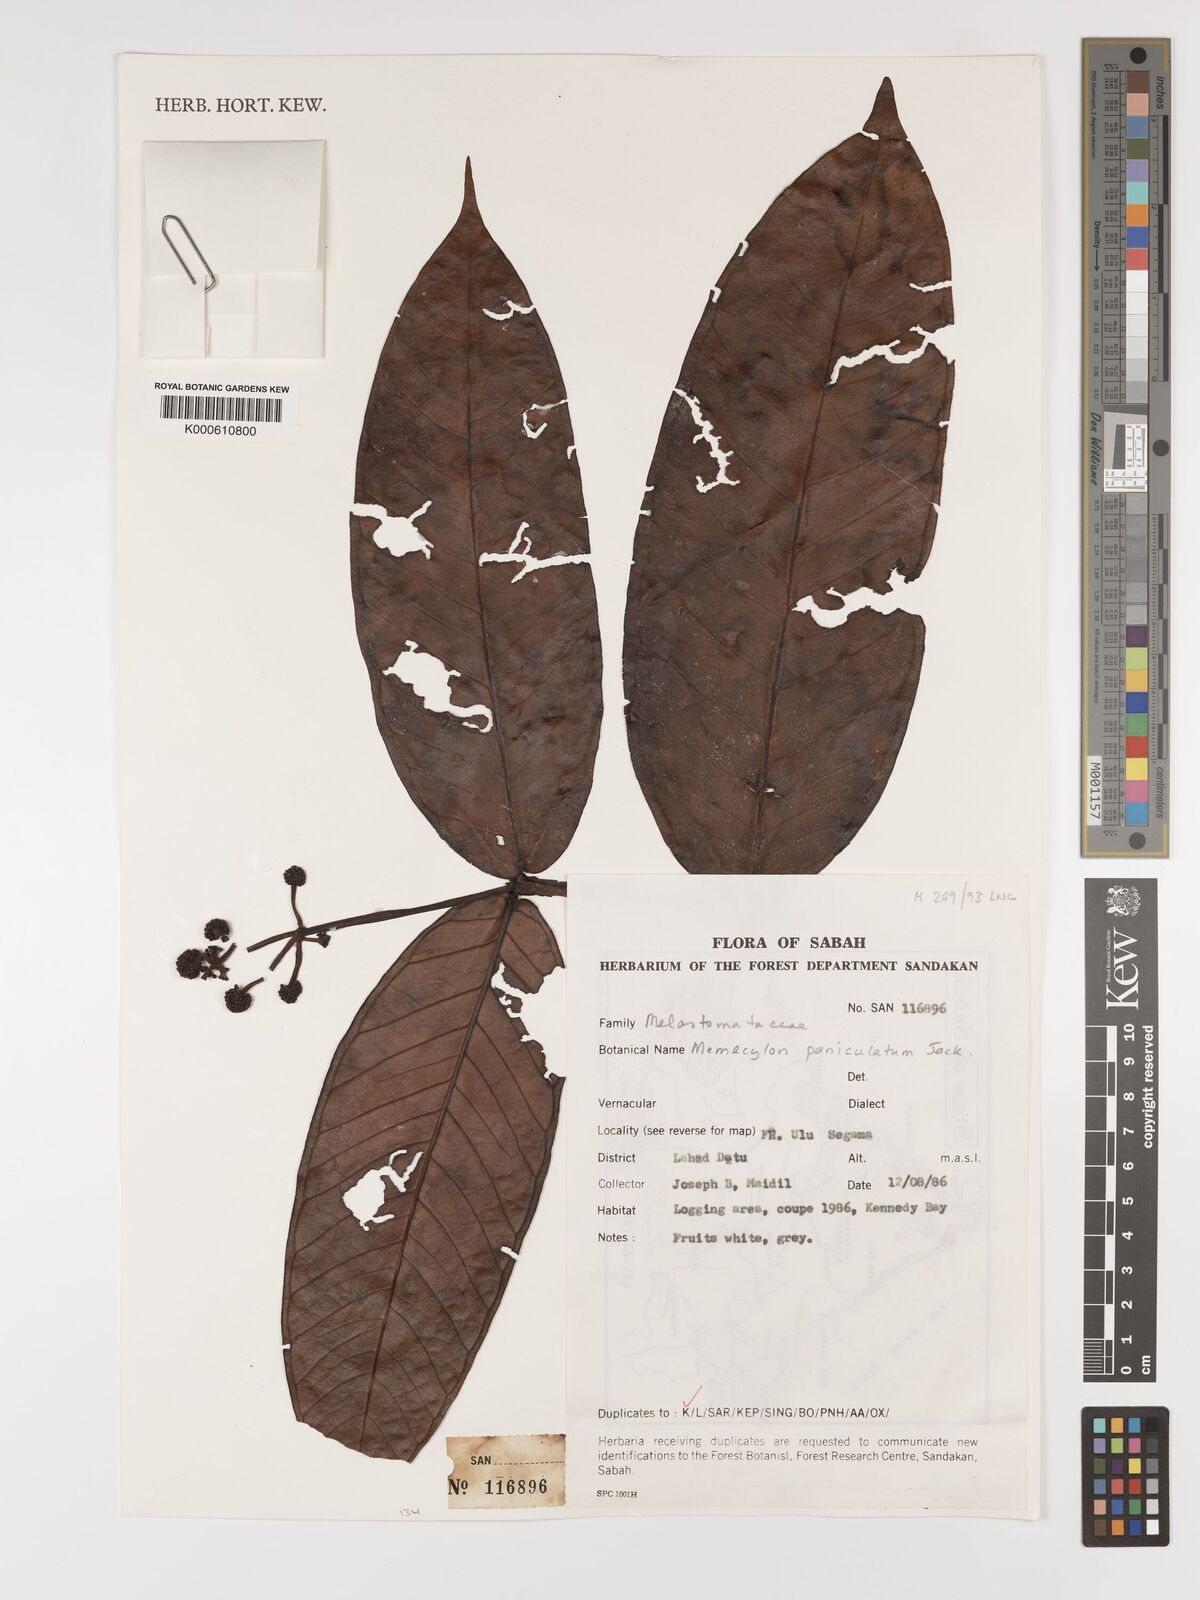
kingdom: Plantae
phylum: Tracheophyta
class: Magnoliopsida
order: Myrtales
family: Melastomataceae
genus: Memecylon
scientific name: Memecylon paniculatum
